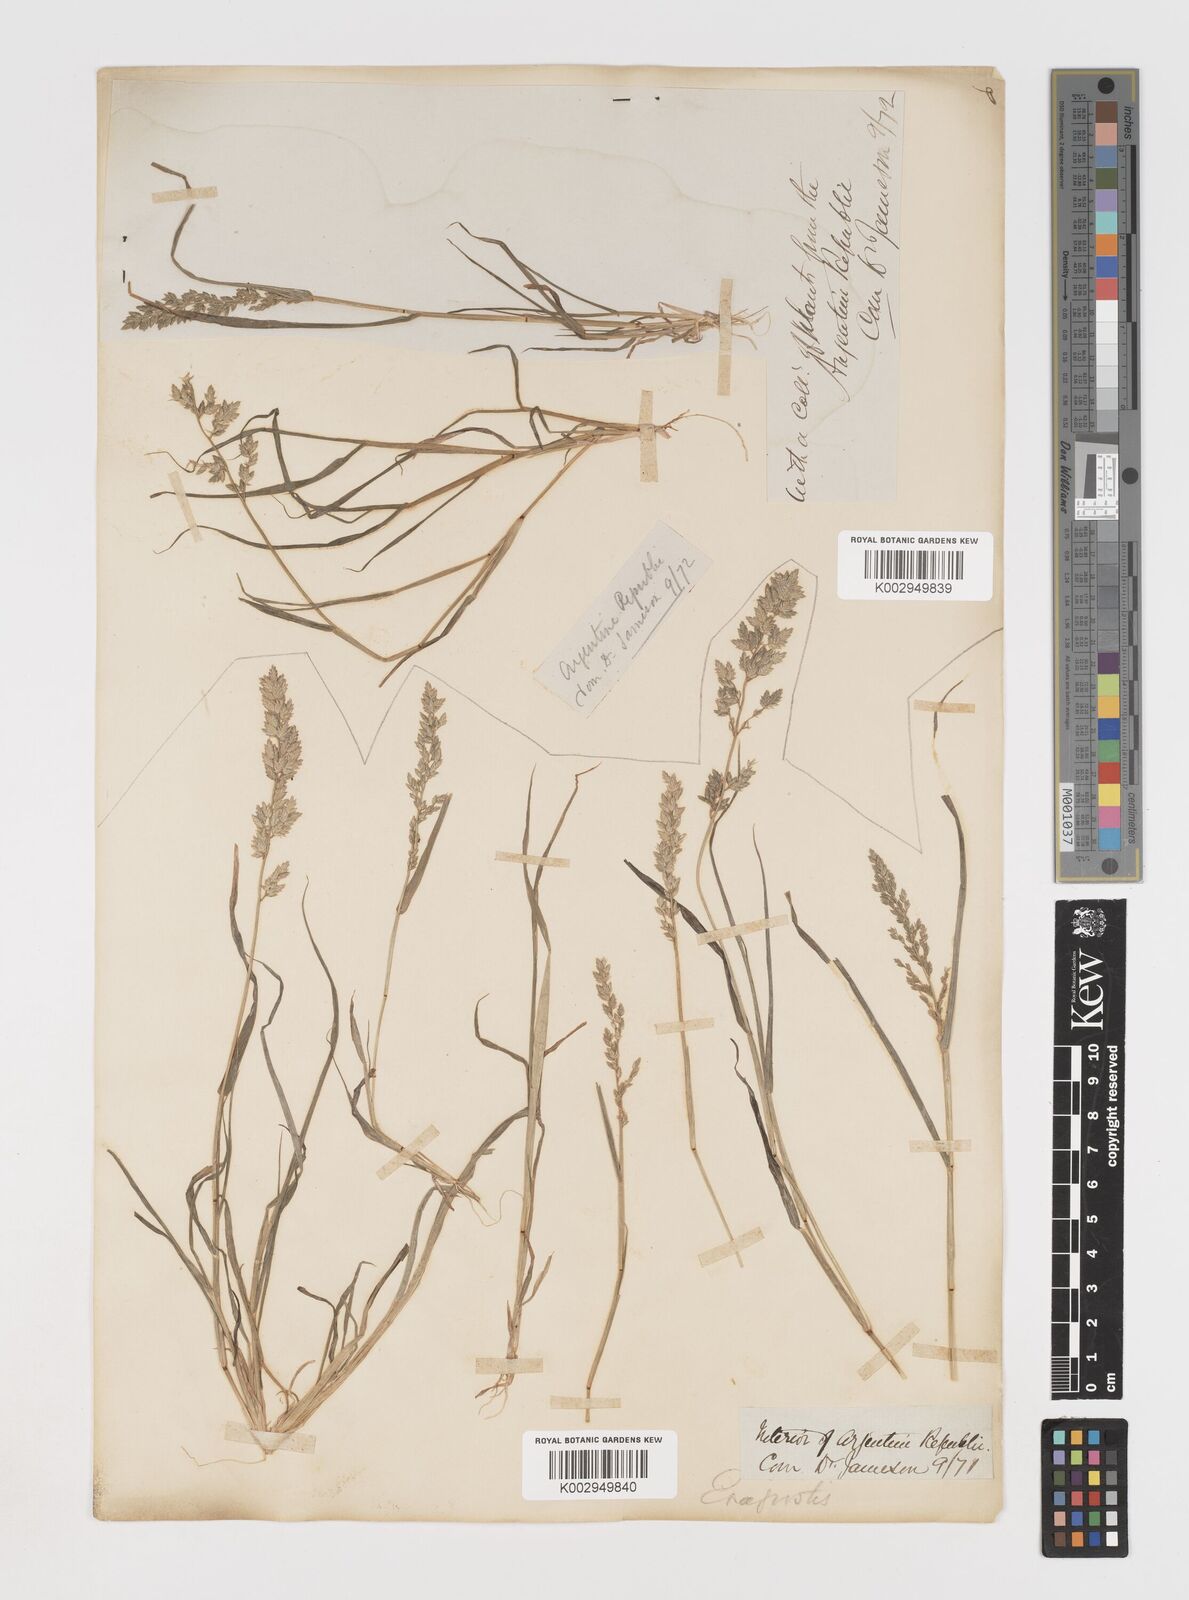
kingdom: Plantae
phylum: Tracheophyta
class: Liliopsida
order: Poales
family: Poaceae
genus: Eragrostis
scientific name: Eragrostis cilianensis
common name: Stinkgrass
